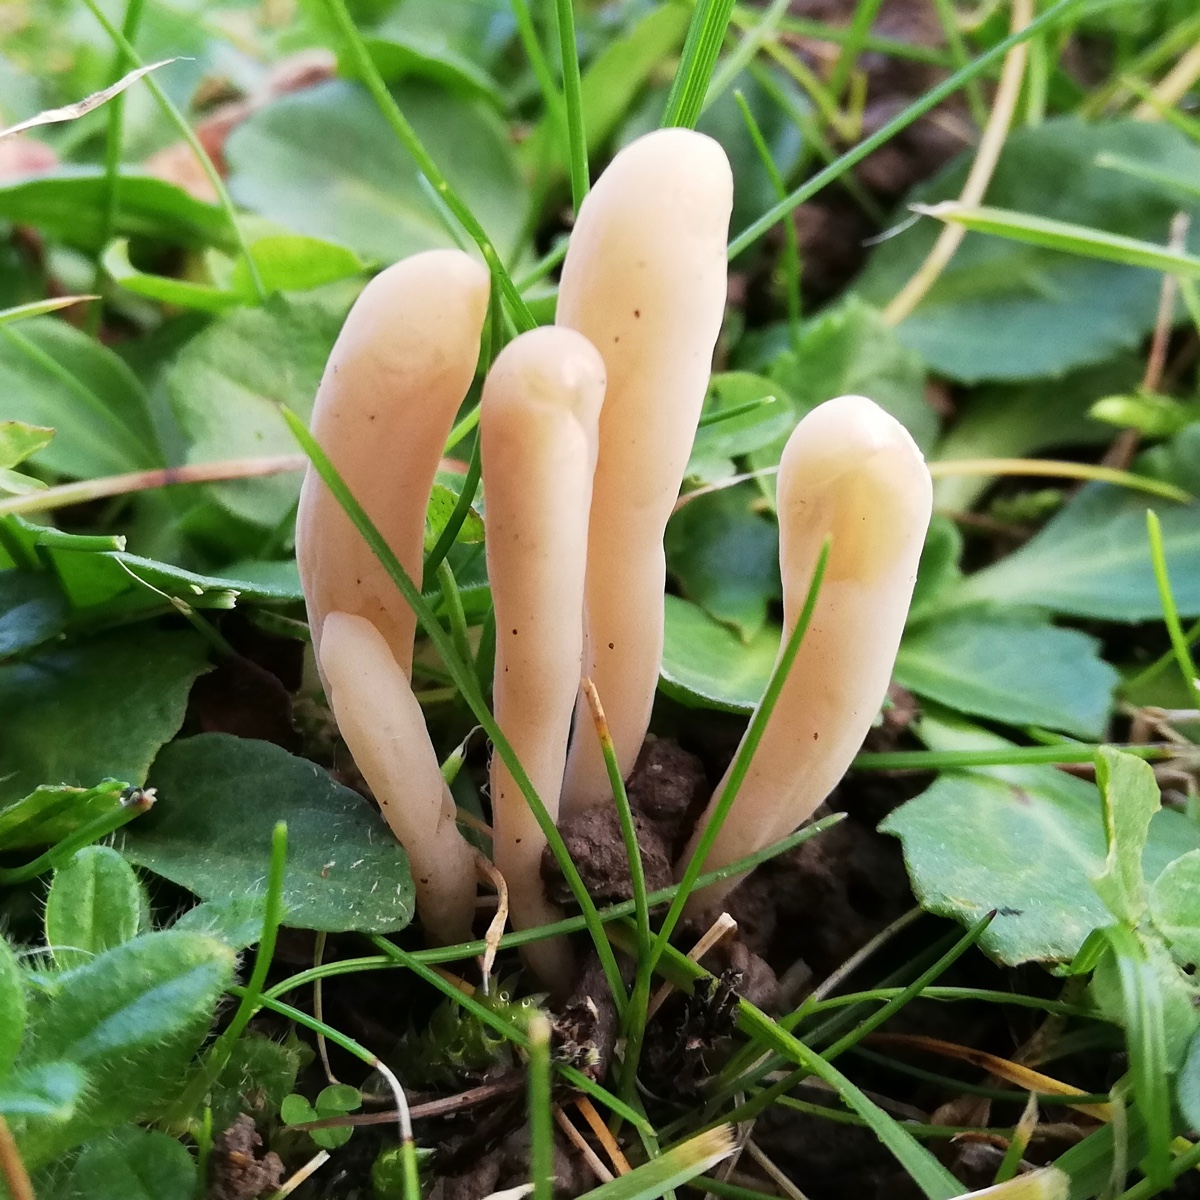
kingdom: Fungi
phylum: Basidiomycota
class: Agaricomycetes
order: Agaricales
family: Clavariaceae
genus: Clavaria
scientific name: Clavaria tenuipes
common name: isabellafarvet køllesvamp
